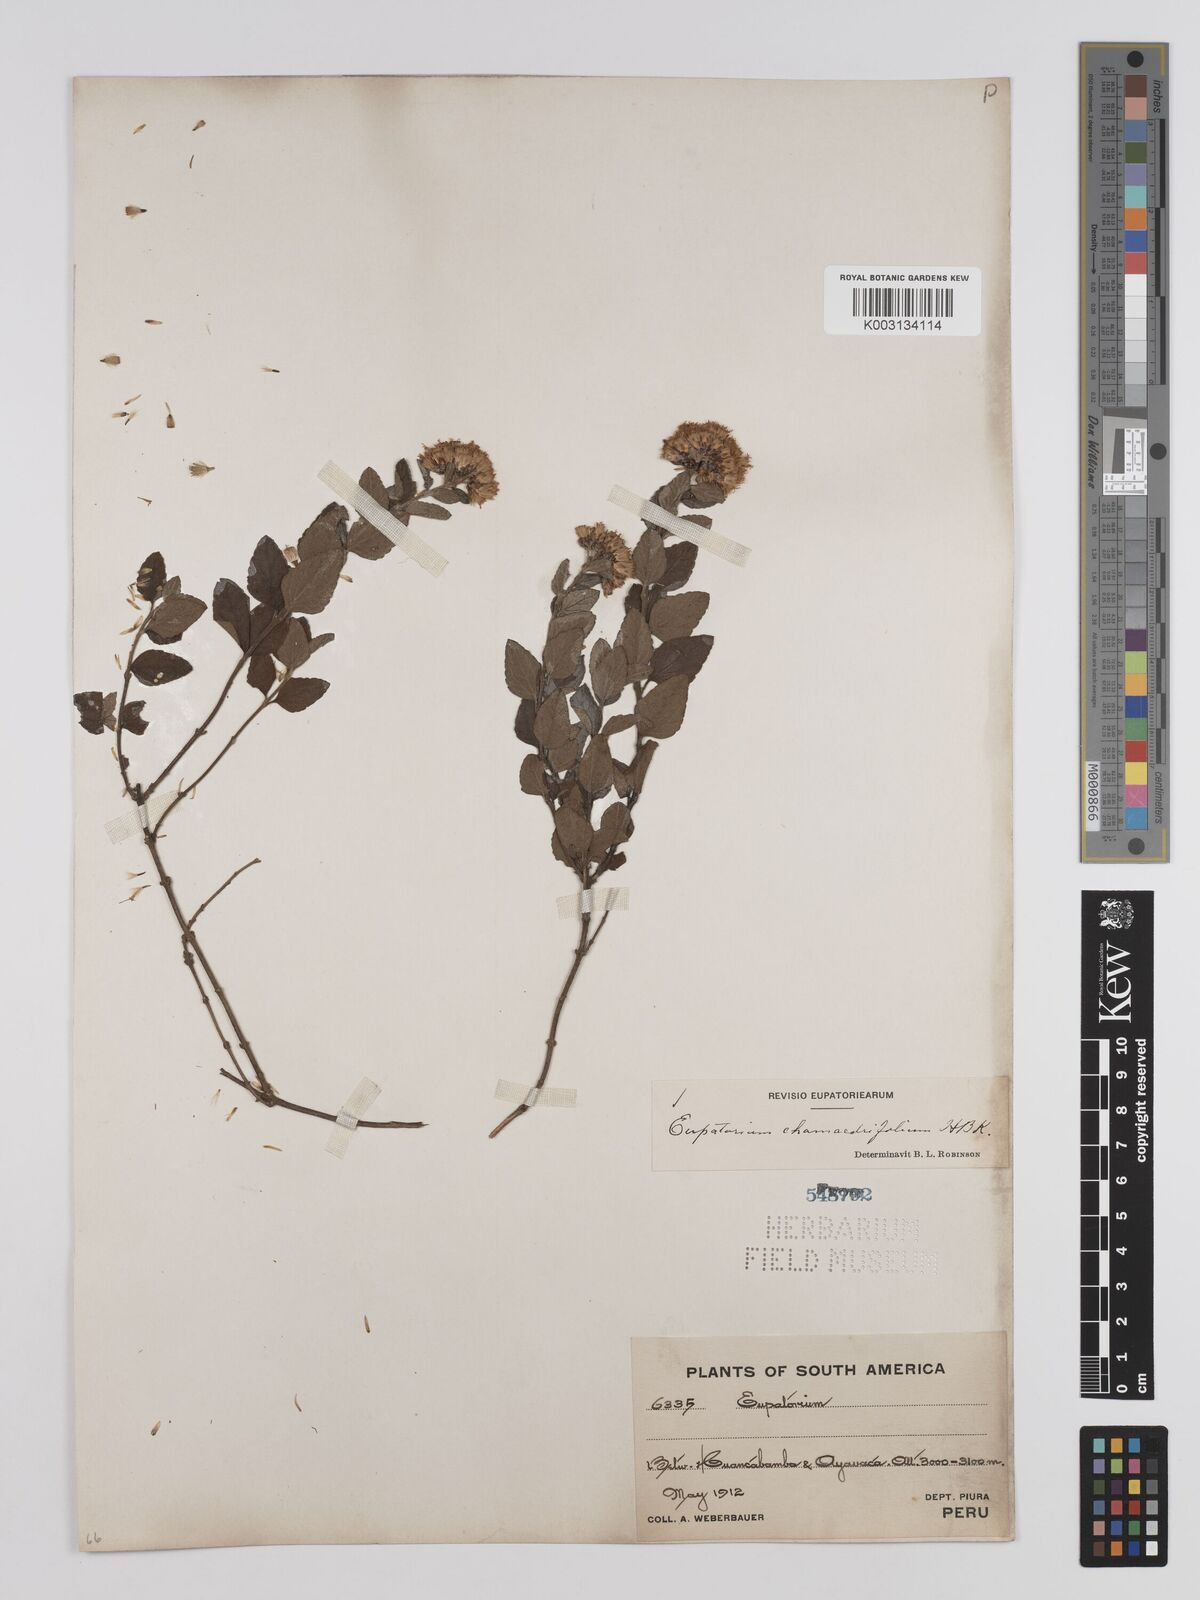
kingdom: Plantae
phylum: Tracheophyta
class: Magnoliopsida
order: Asterales
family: Asteraceae
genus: Cronquistianthus
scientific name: Cronquistianthus chamaedrifolius
